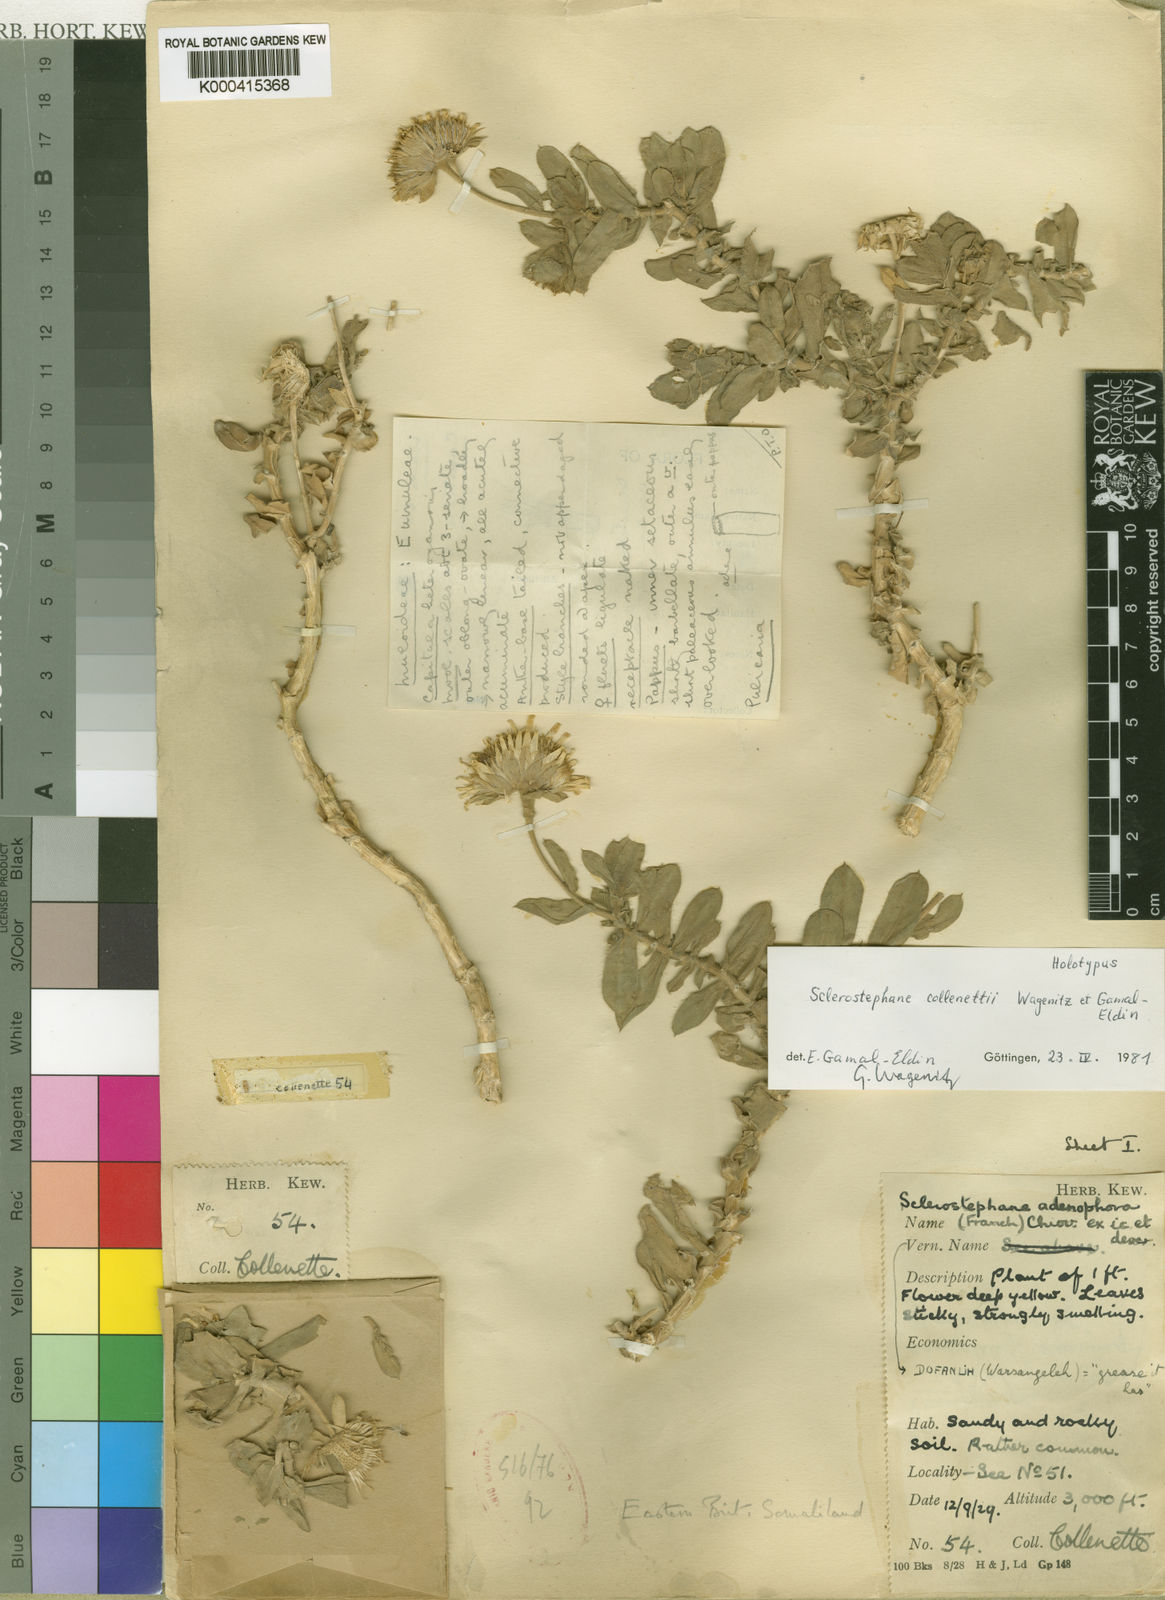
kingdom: Plantae
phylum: Tracheophyta
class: Magnoliopsida
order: Asterales
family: Asteraceae
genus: Pulicaria
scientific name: Pulicaria collenettei
